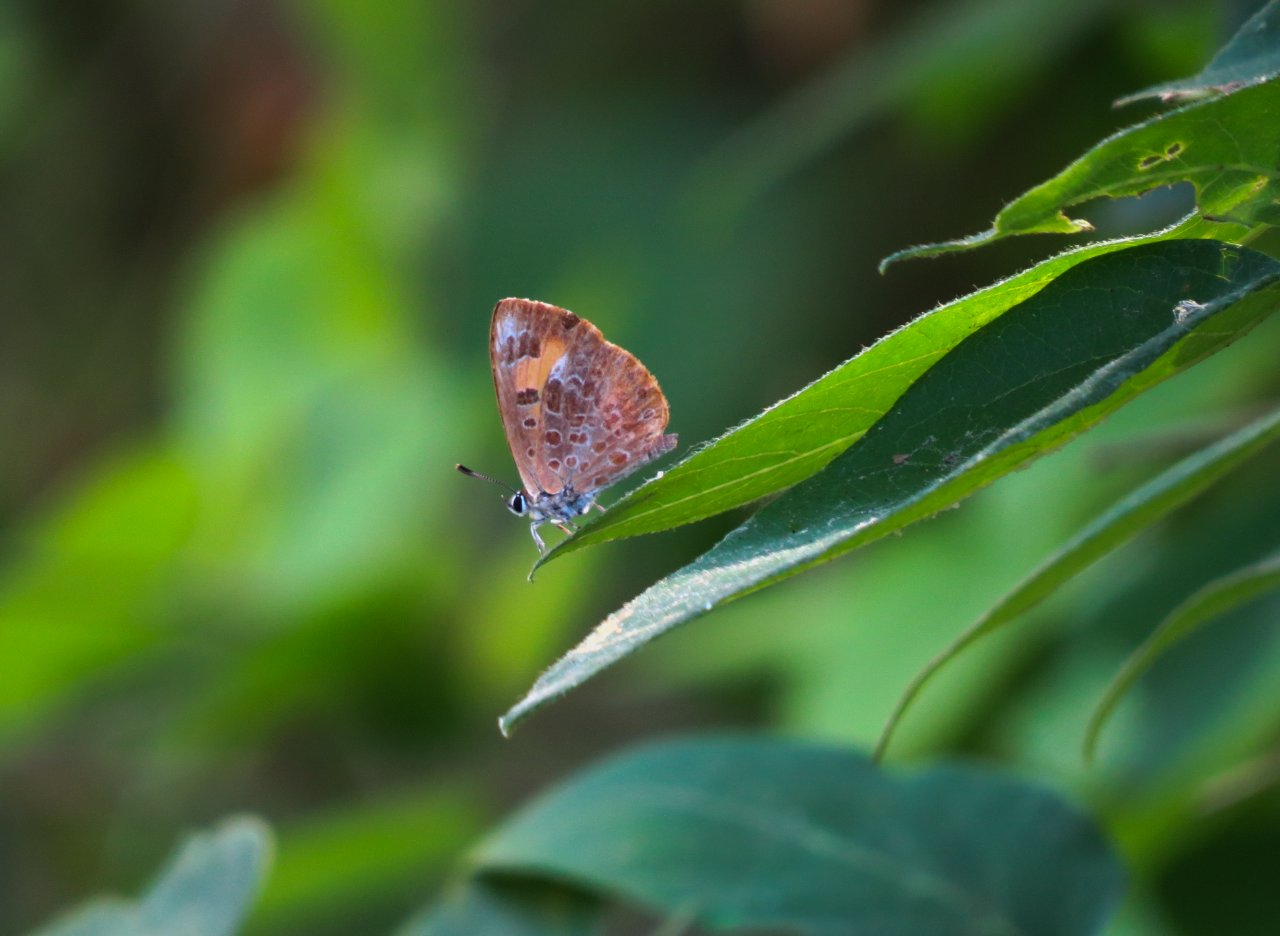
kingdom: Animalia
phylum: Arthropoda
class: Insecta
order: Lepidoptera
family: Lycaenidae
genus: Feniseca
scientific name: Feniseca tarquinius
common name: Harvester
